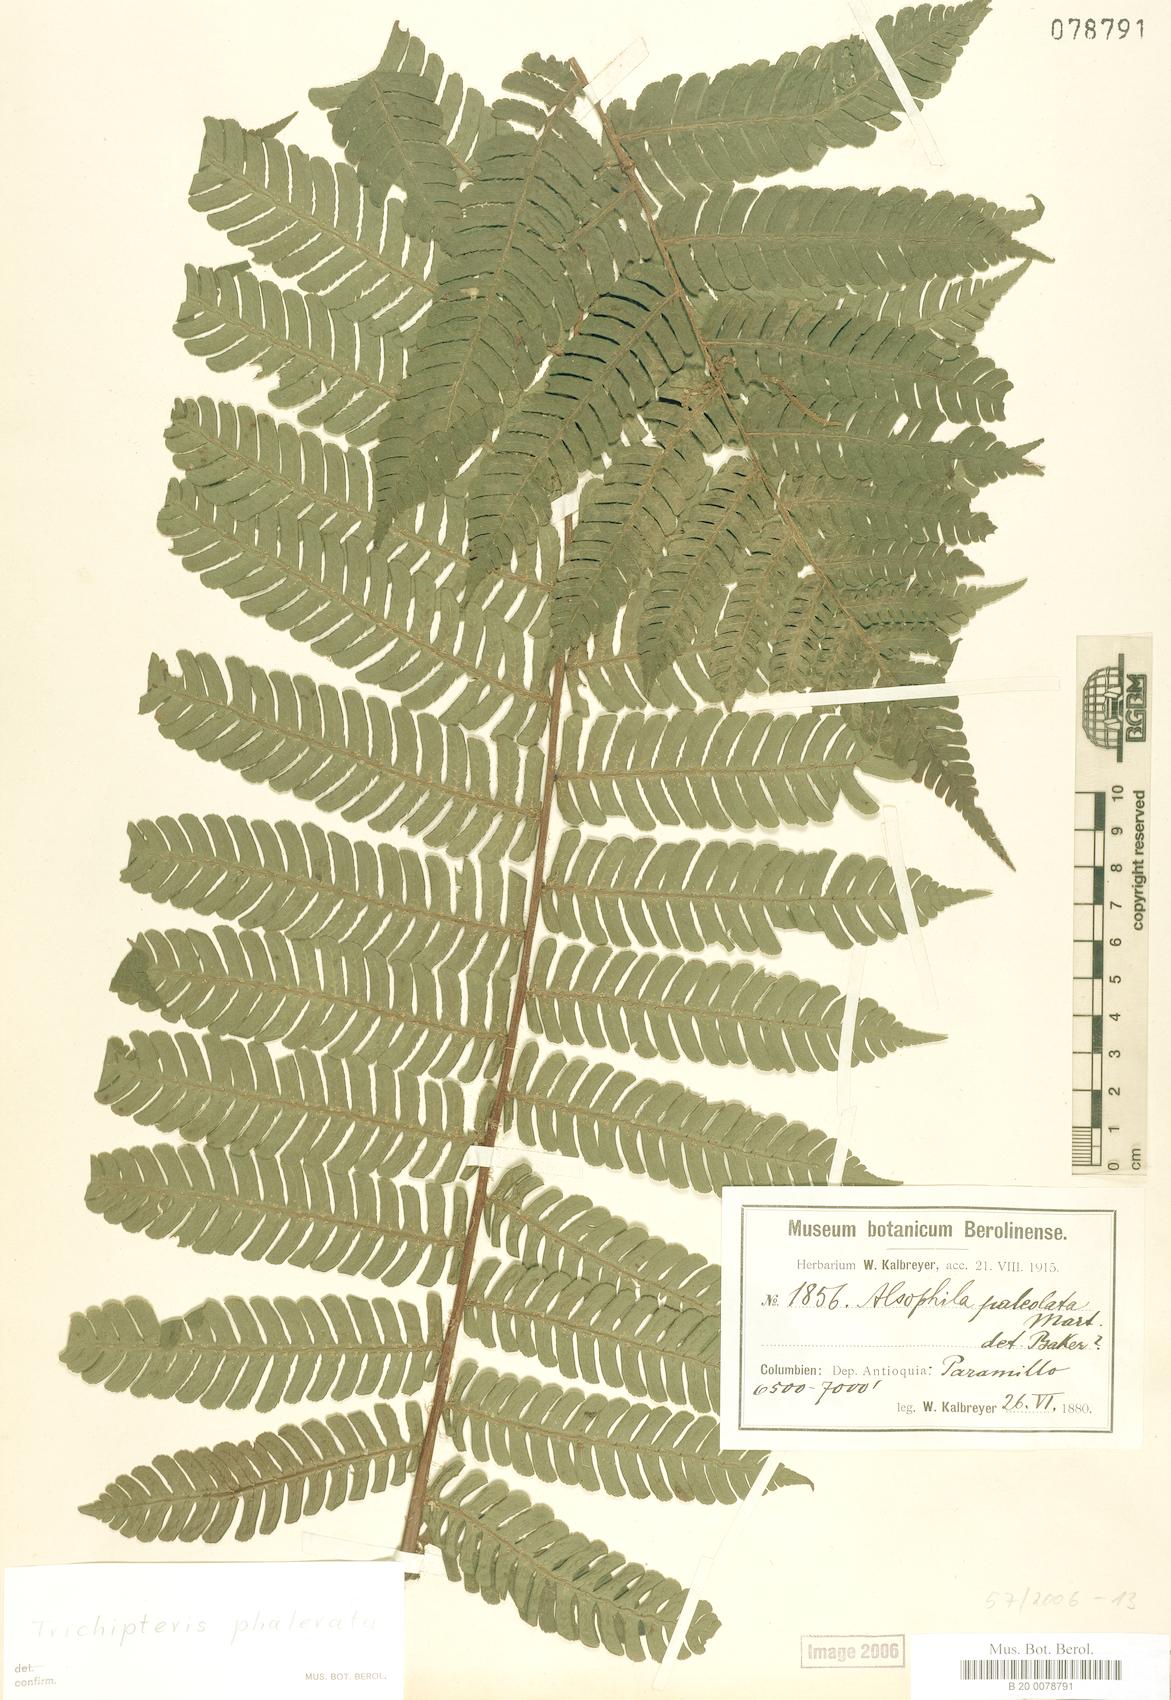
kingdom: Plantae
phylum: Tracheophyta
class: Polypodiopsida
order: Cyatheales
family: Cyatheaceae
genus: Cyathea
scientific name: Cyathea
